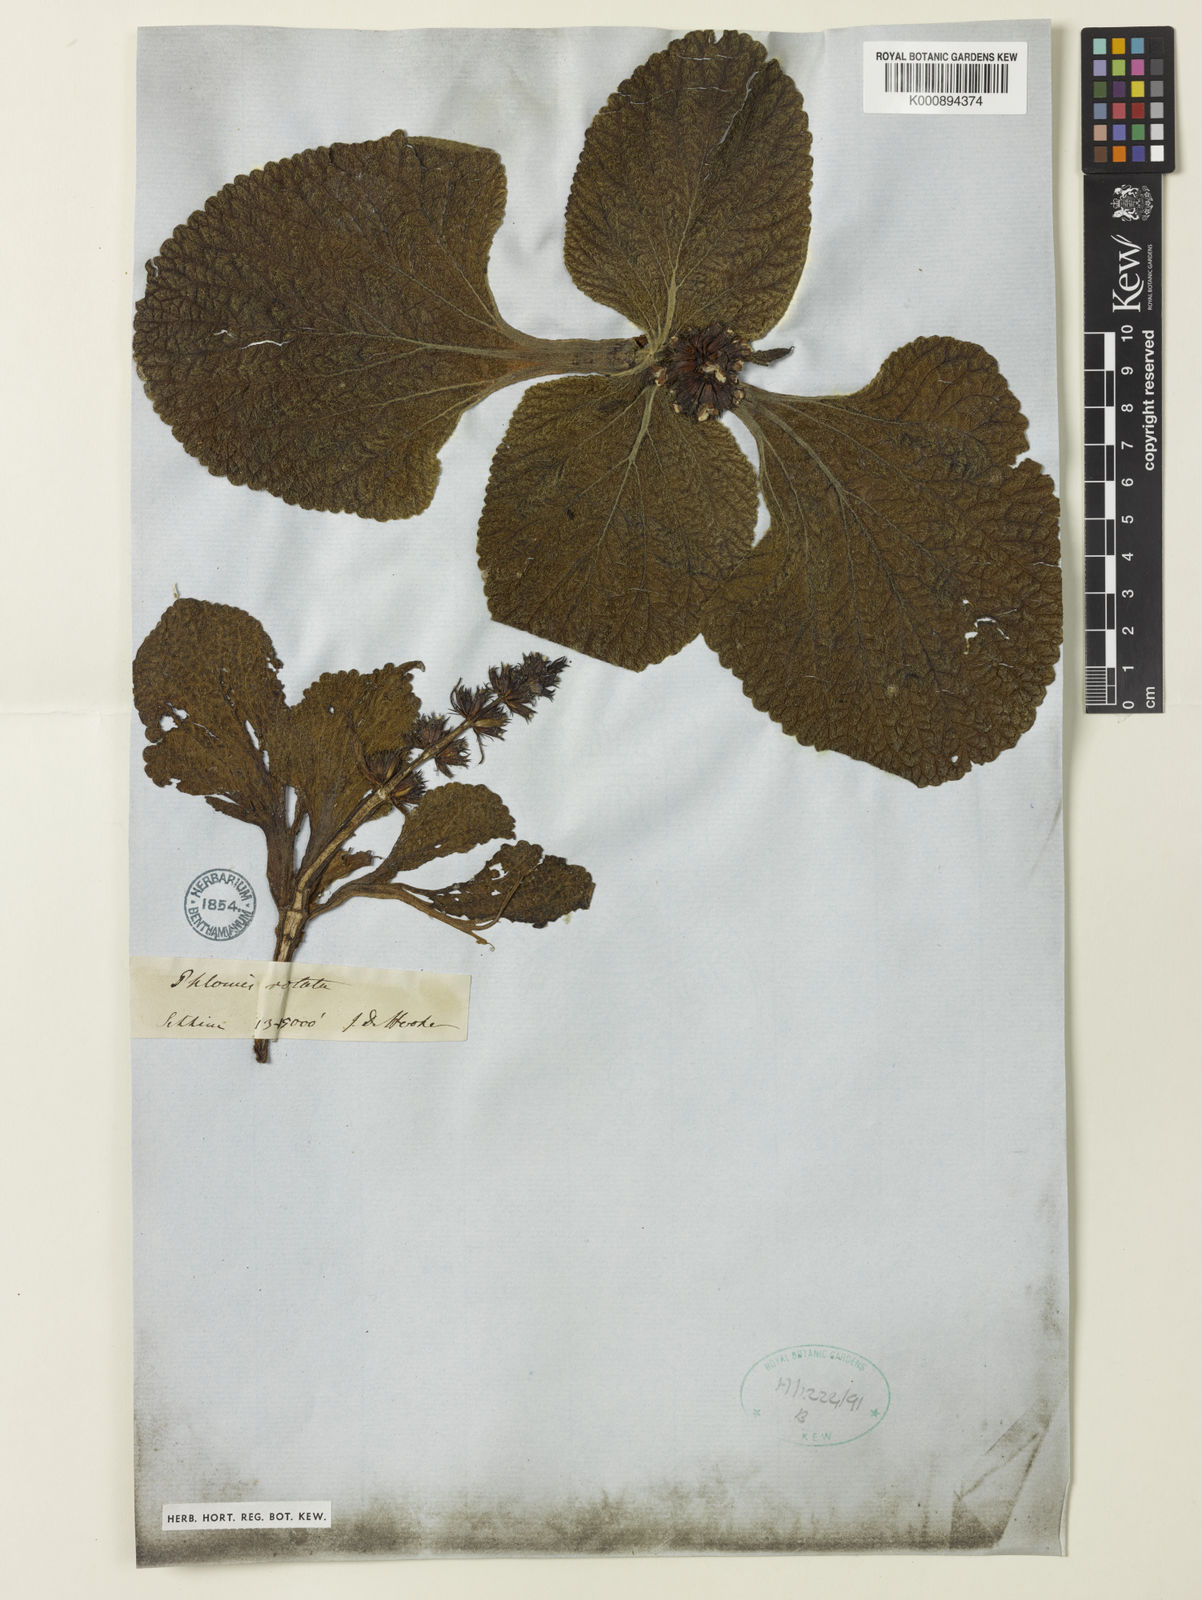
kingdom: Plantae
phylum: Tracheophyta
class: Magnoliopsida
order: Lamiales
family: Lamiaceae
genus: Phlomoides
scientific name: Phlomoides rotata
